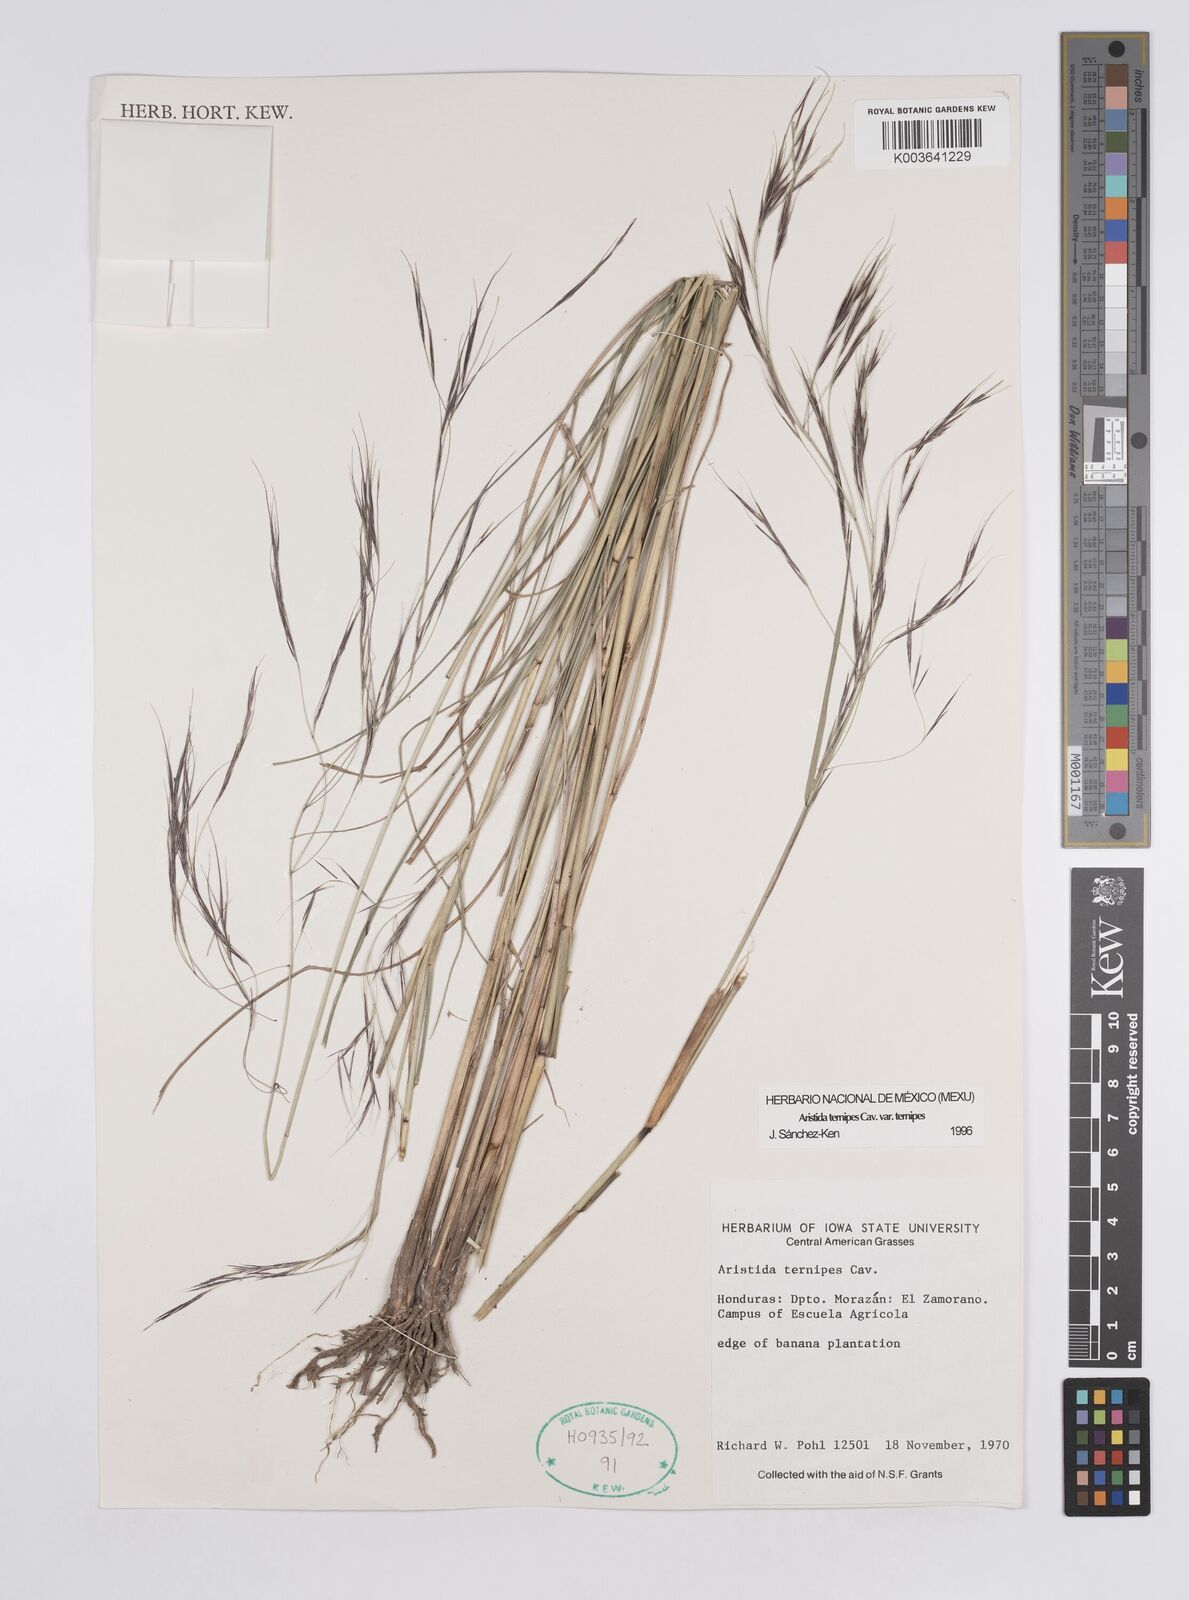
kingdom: Plantae
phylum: Tracheophyta
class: Liliopsida
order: Poales
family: Poaceae
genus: Aristida
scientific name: Aristida
